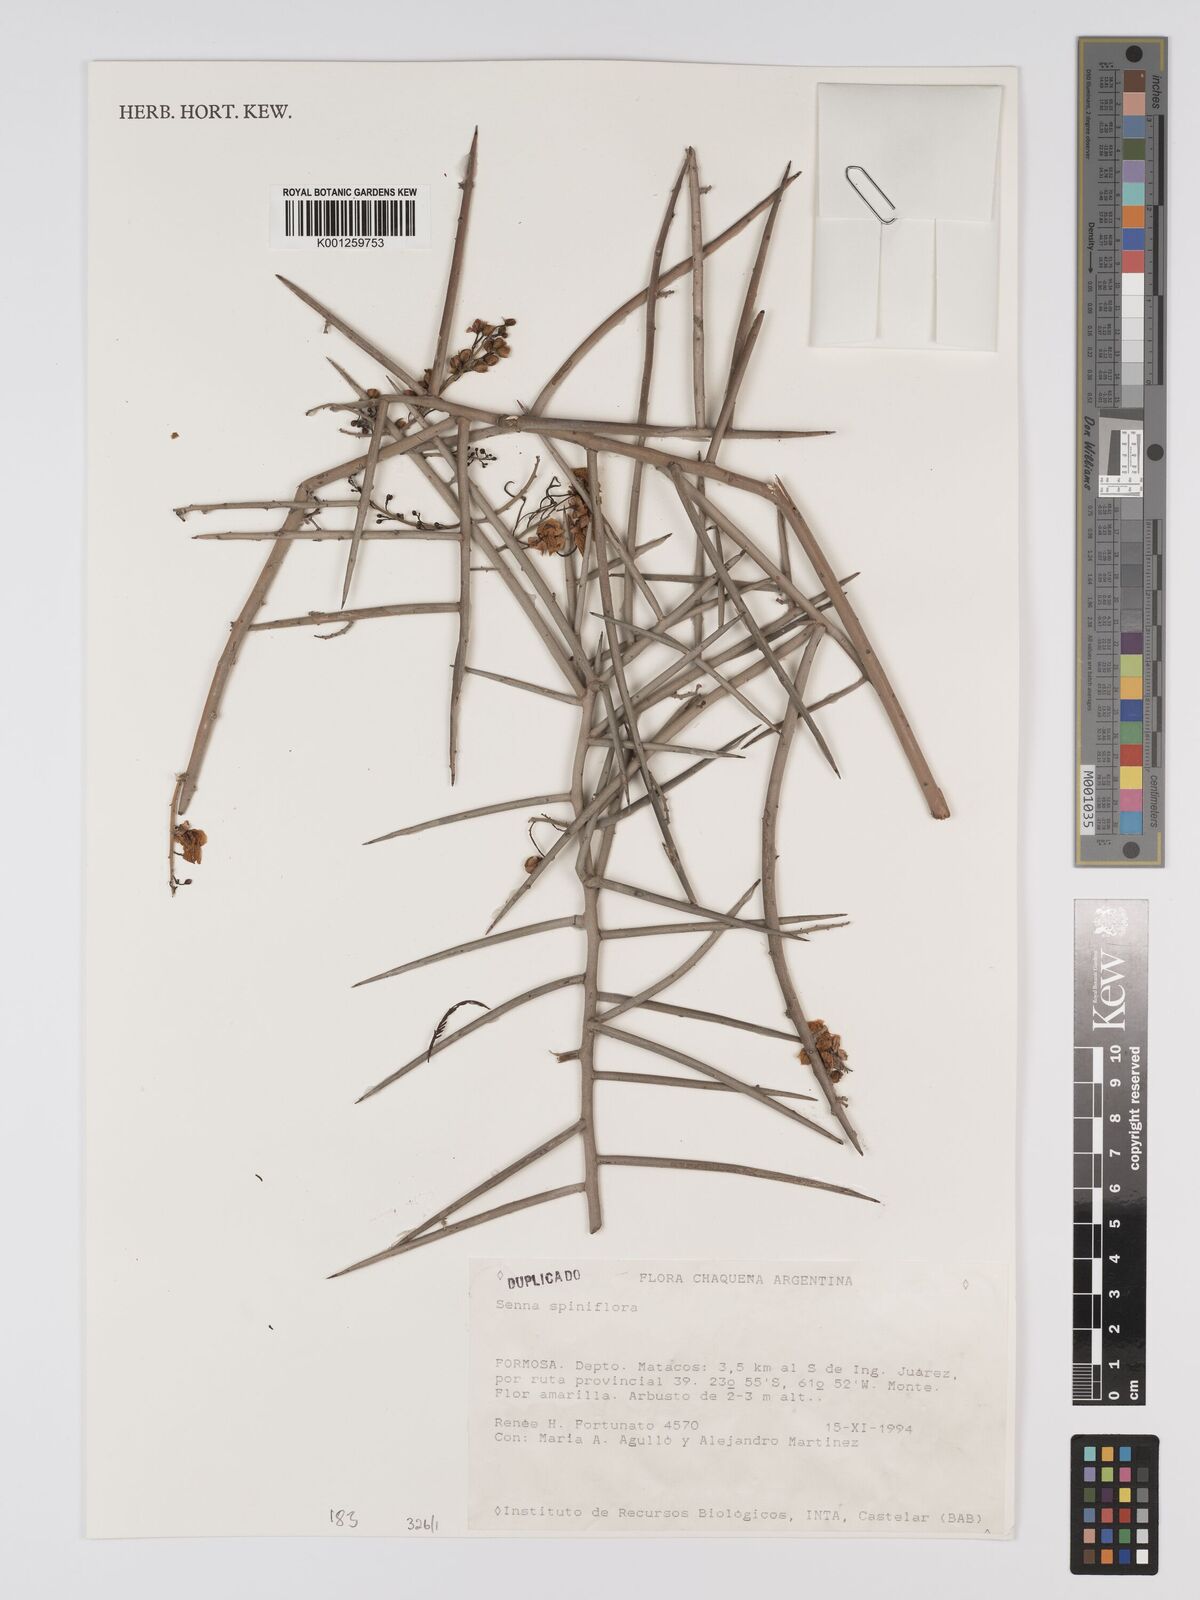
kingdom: Plantae
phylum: Tracheophyta
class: Magnoliopsida
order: Fabales
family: Fabaceae
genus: Senna
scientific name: Senna spiniflora
